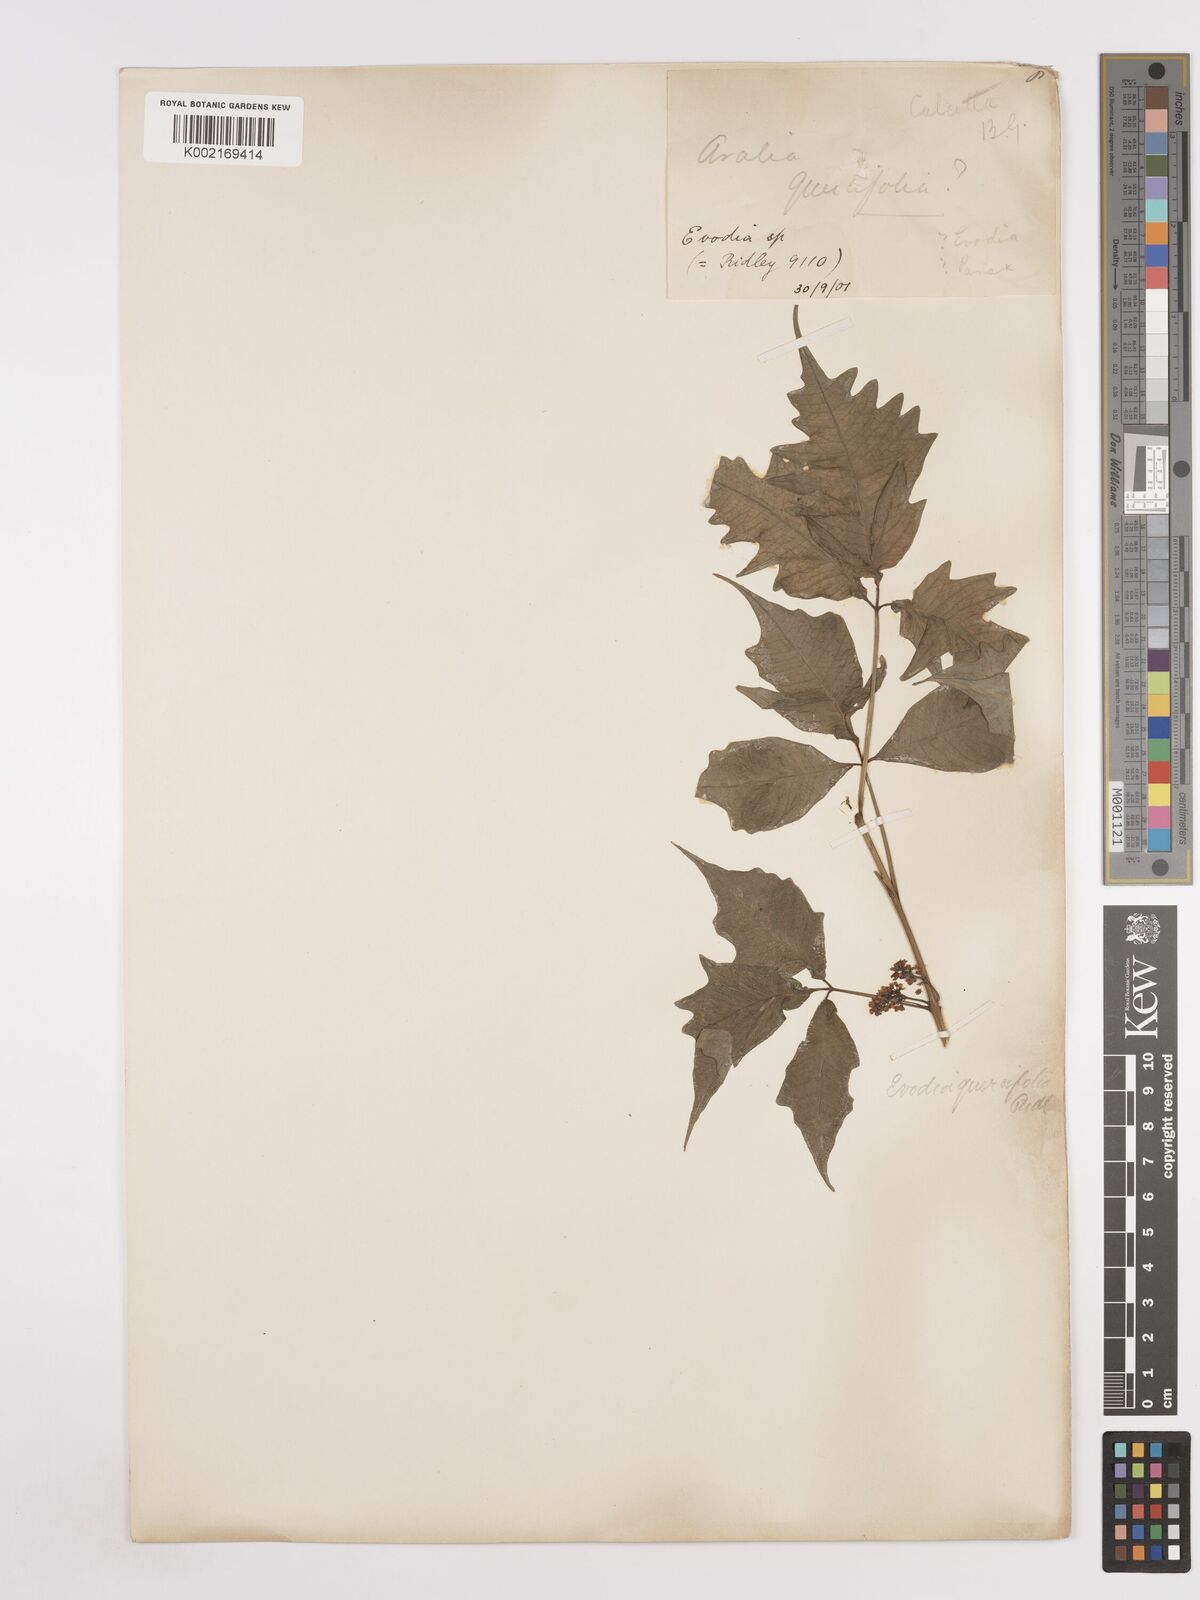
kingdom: Plantae
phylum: Tracheophyta
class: Magnoliopsida
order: Sapindales
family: Rutaceae
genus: Melicope
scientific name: Melicope denhamii
